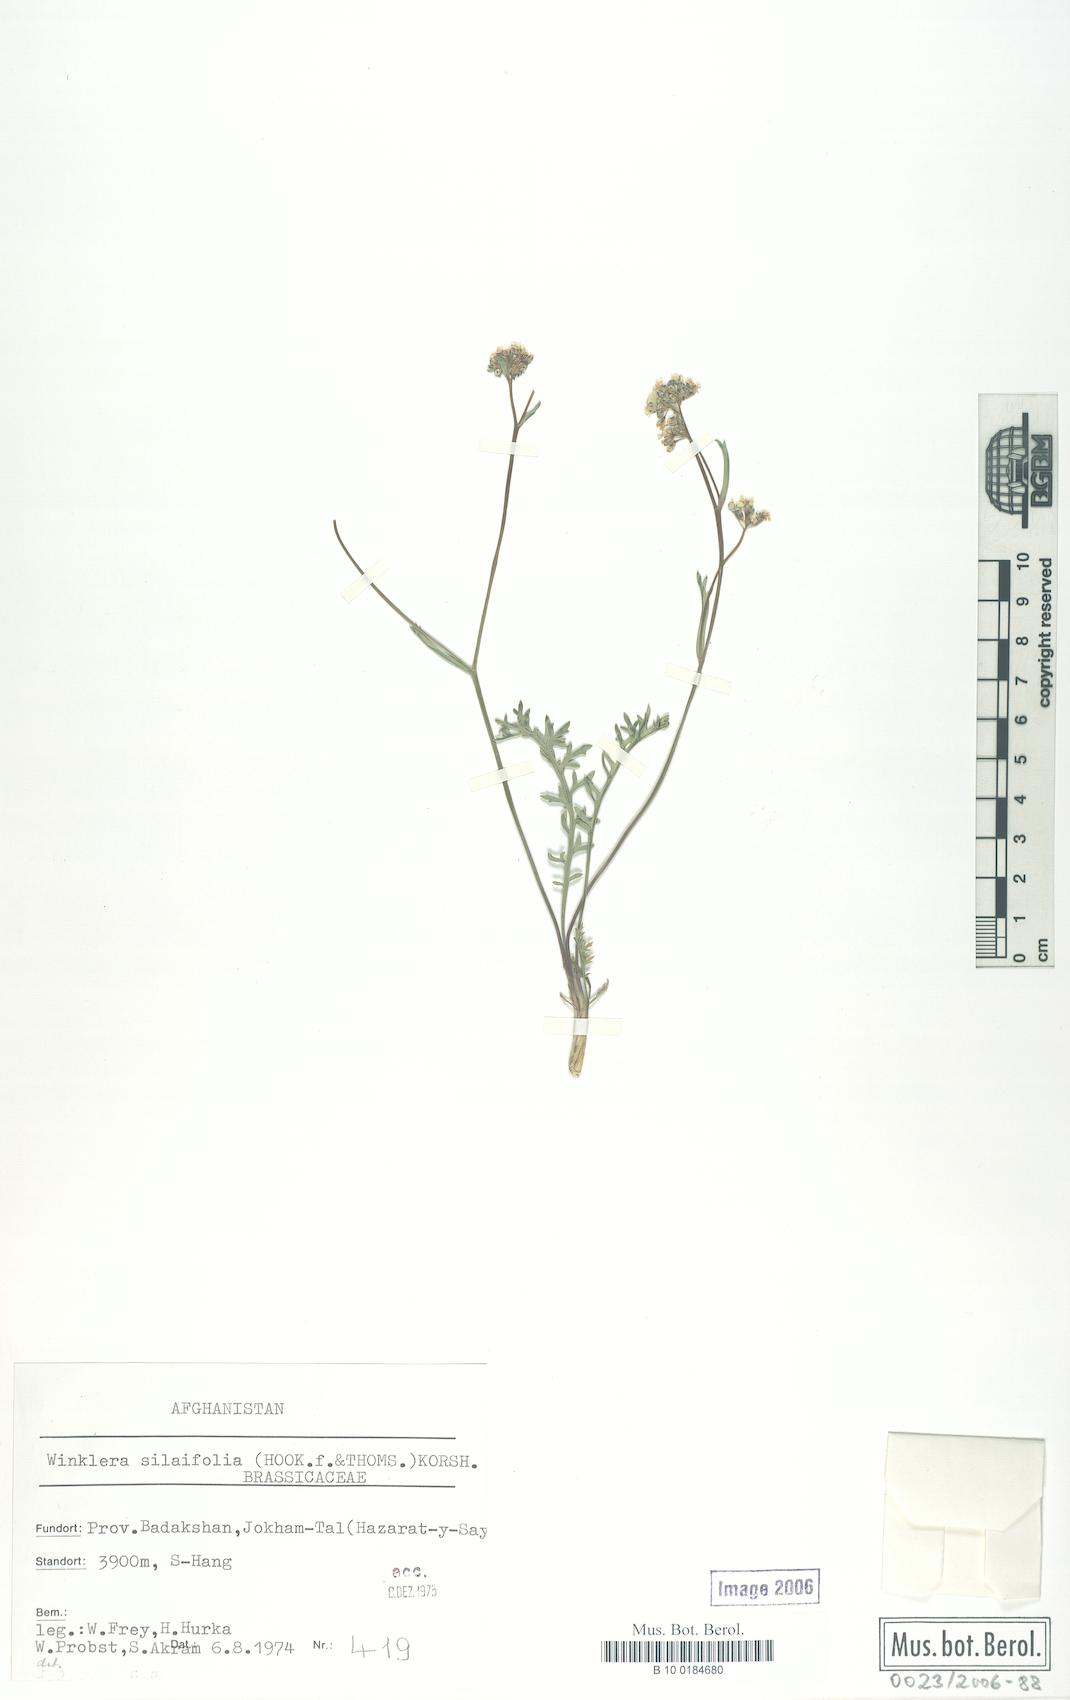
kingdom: Plantae
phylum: Tracheophyta
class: Magnoliopsida
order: Brassicales
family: Brassicaceae
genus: Lepidium
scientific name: Lepidium silaifolium
